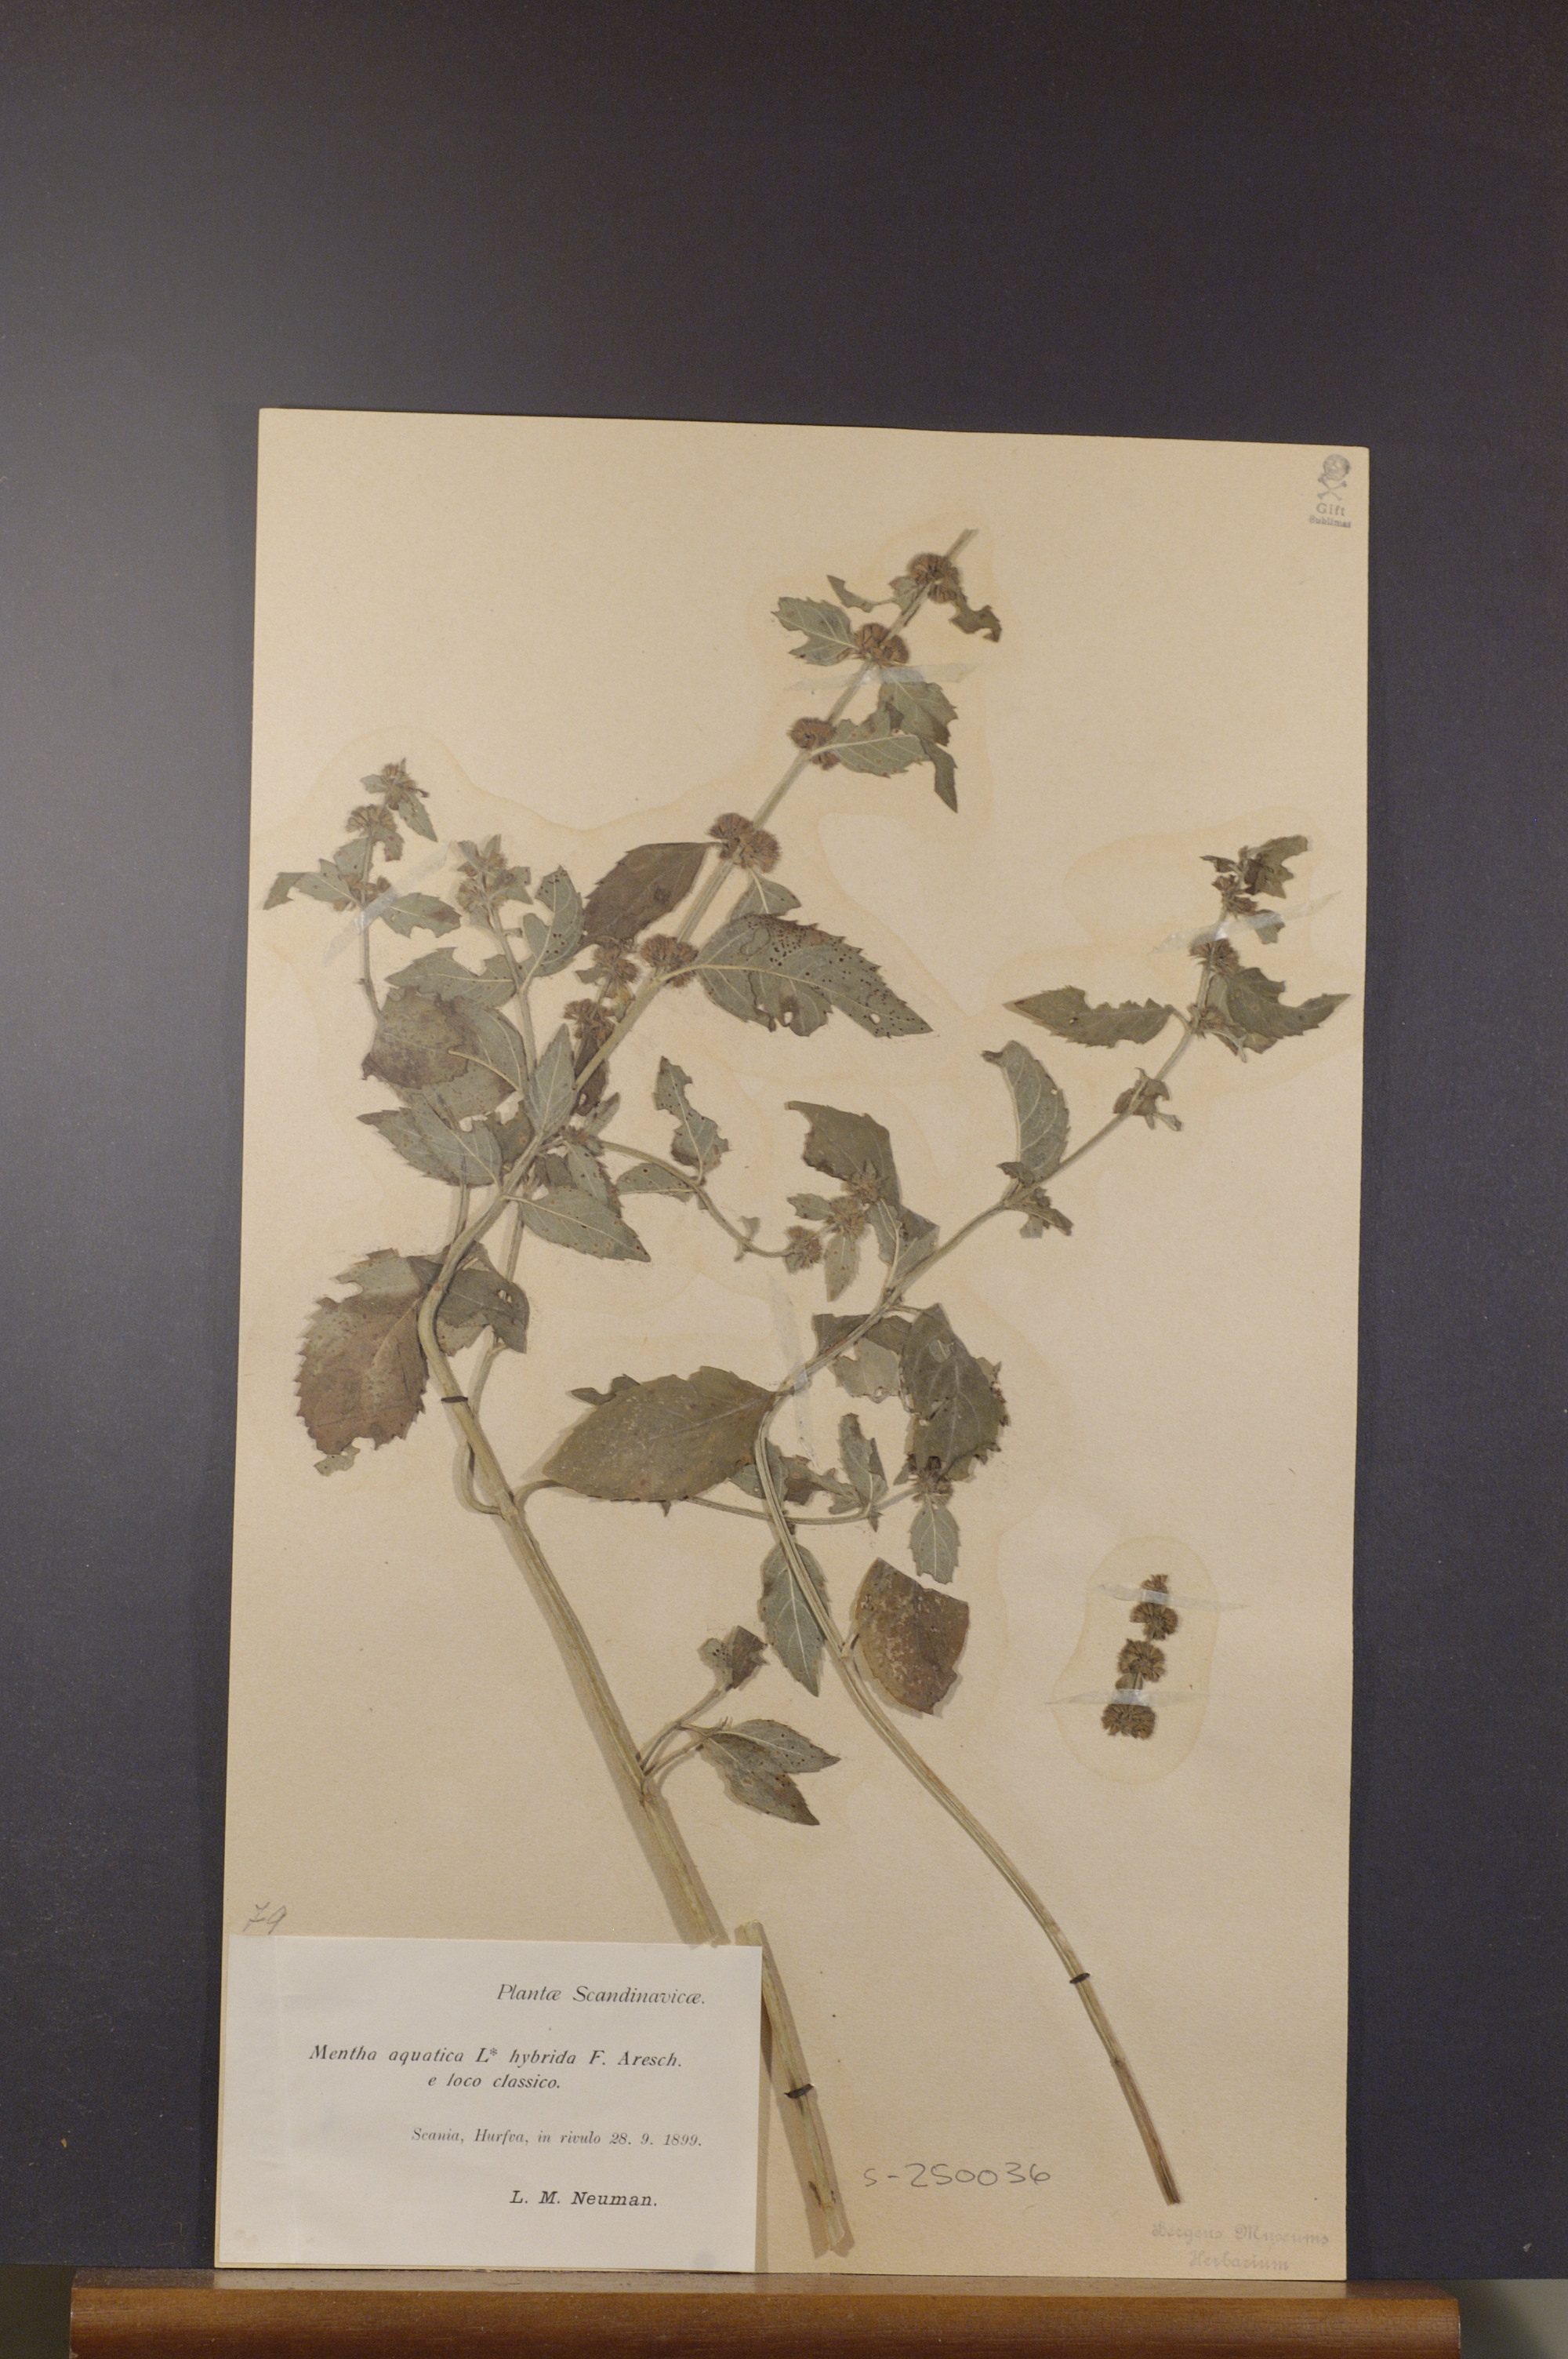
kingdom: Plantae
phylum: Tracheophyta
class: Magnoliopsida
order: Lamiales
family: Lamiaceae
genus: Mentha
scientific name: Mentha aquatica
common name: Water mint
